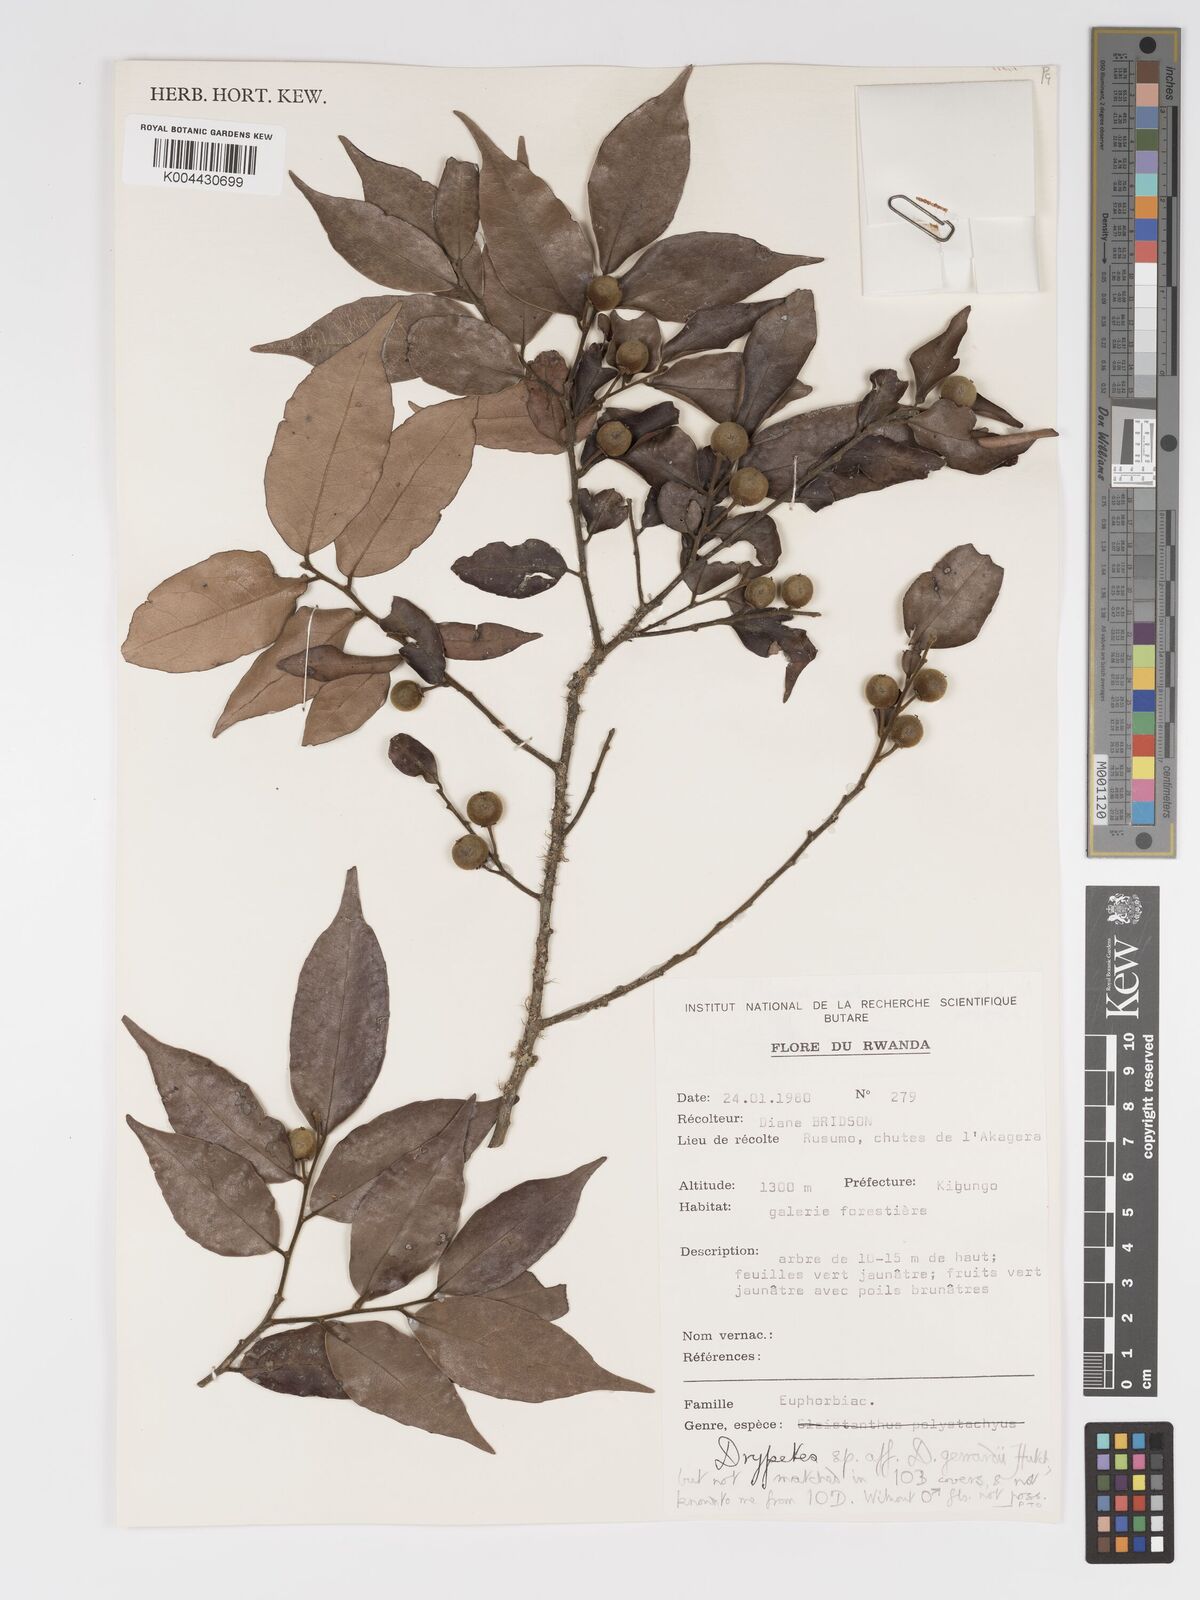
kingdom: Plantae
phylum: Tracheophyta
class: Magnoliopsida
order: Malpighiales
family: Putranjivaceae
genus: Drypetes
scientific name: Drypetes gerrardii
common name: Forest ironplum
